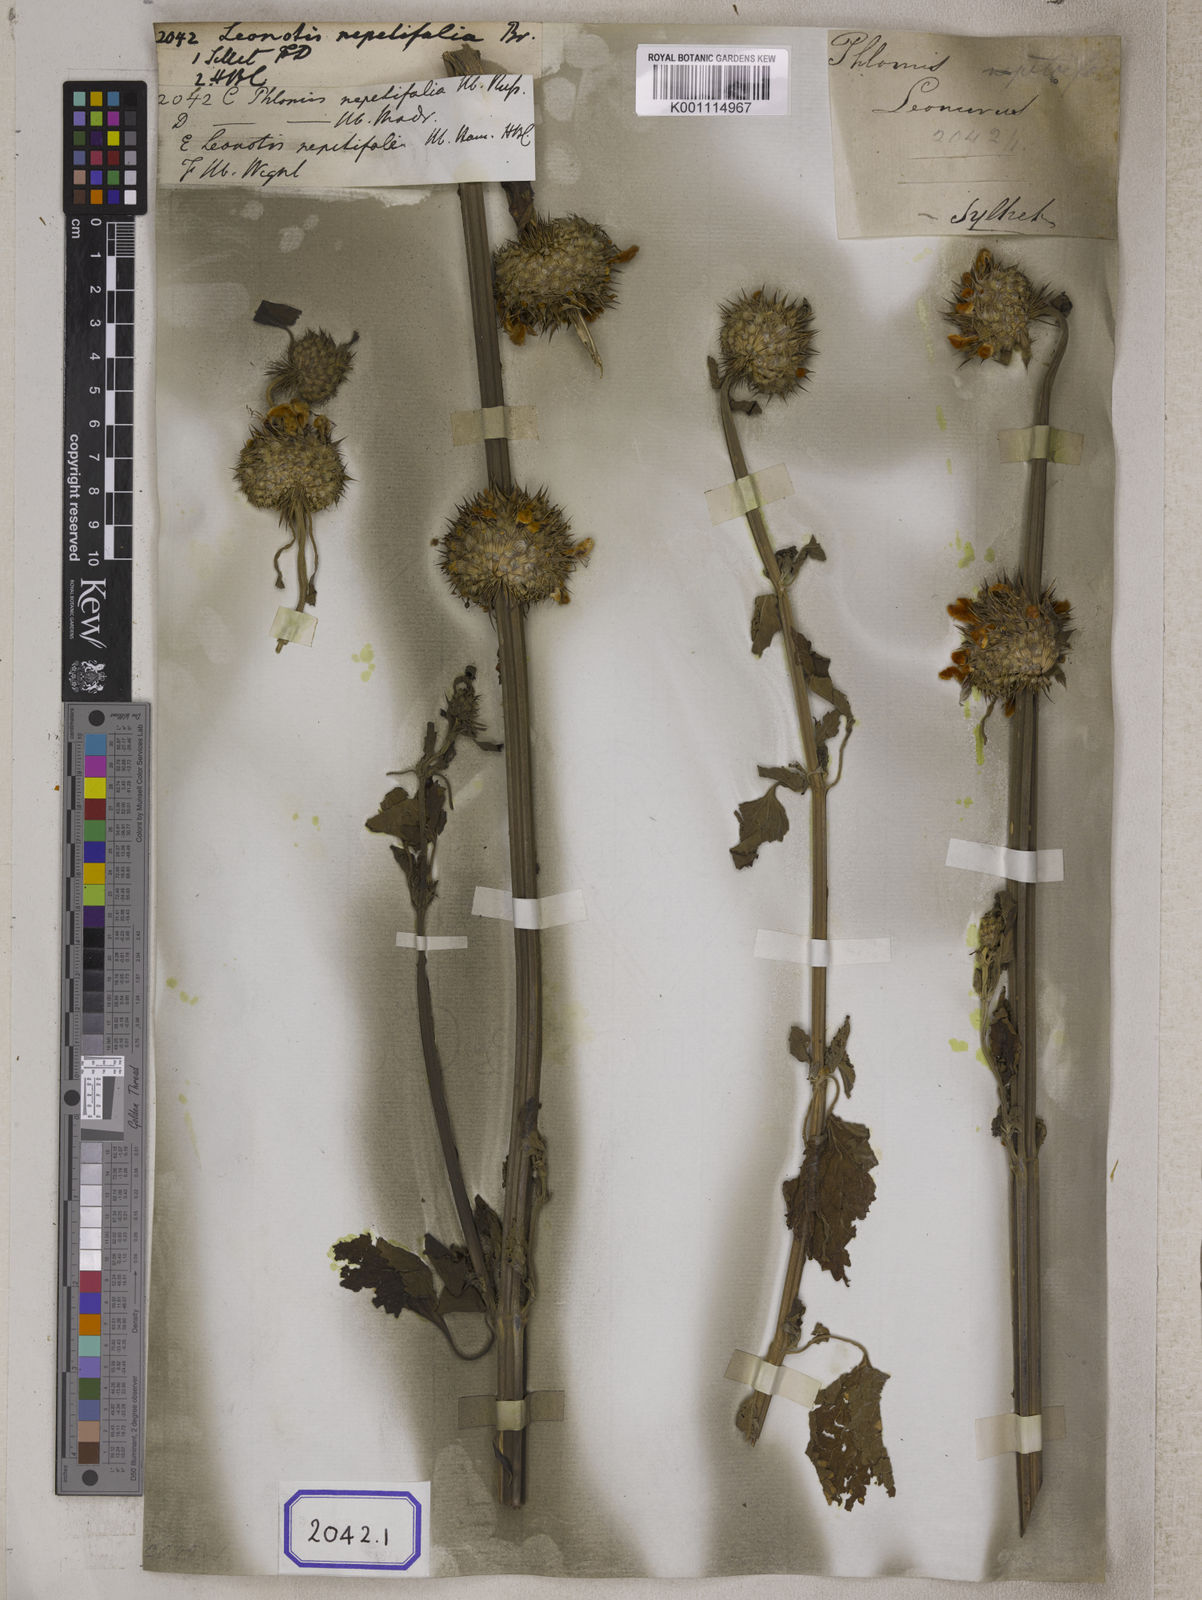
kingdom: Plantae
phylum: Tracheophyta
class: Magnoliopsida
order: Lamiales
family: Lamiaceae
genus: Leonotis
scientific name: Leonotis nepetifolia
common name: Christmas candlestick
